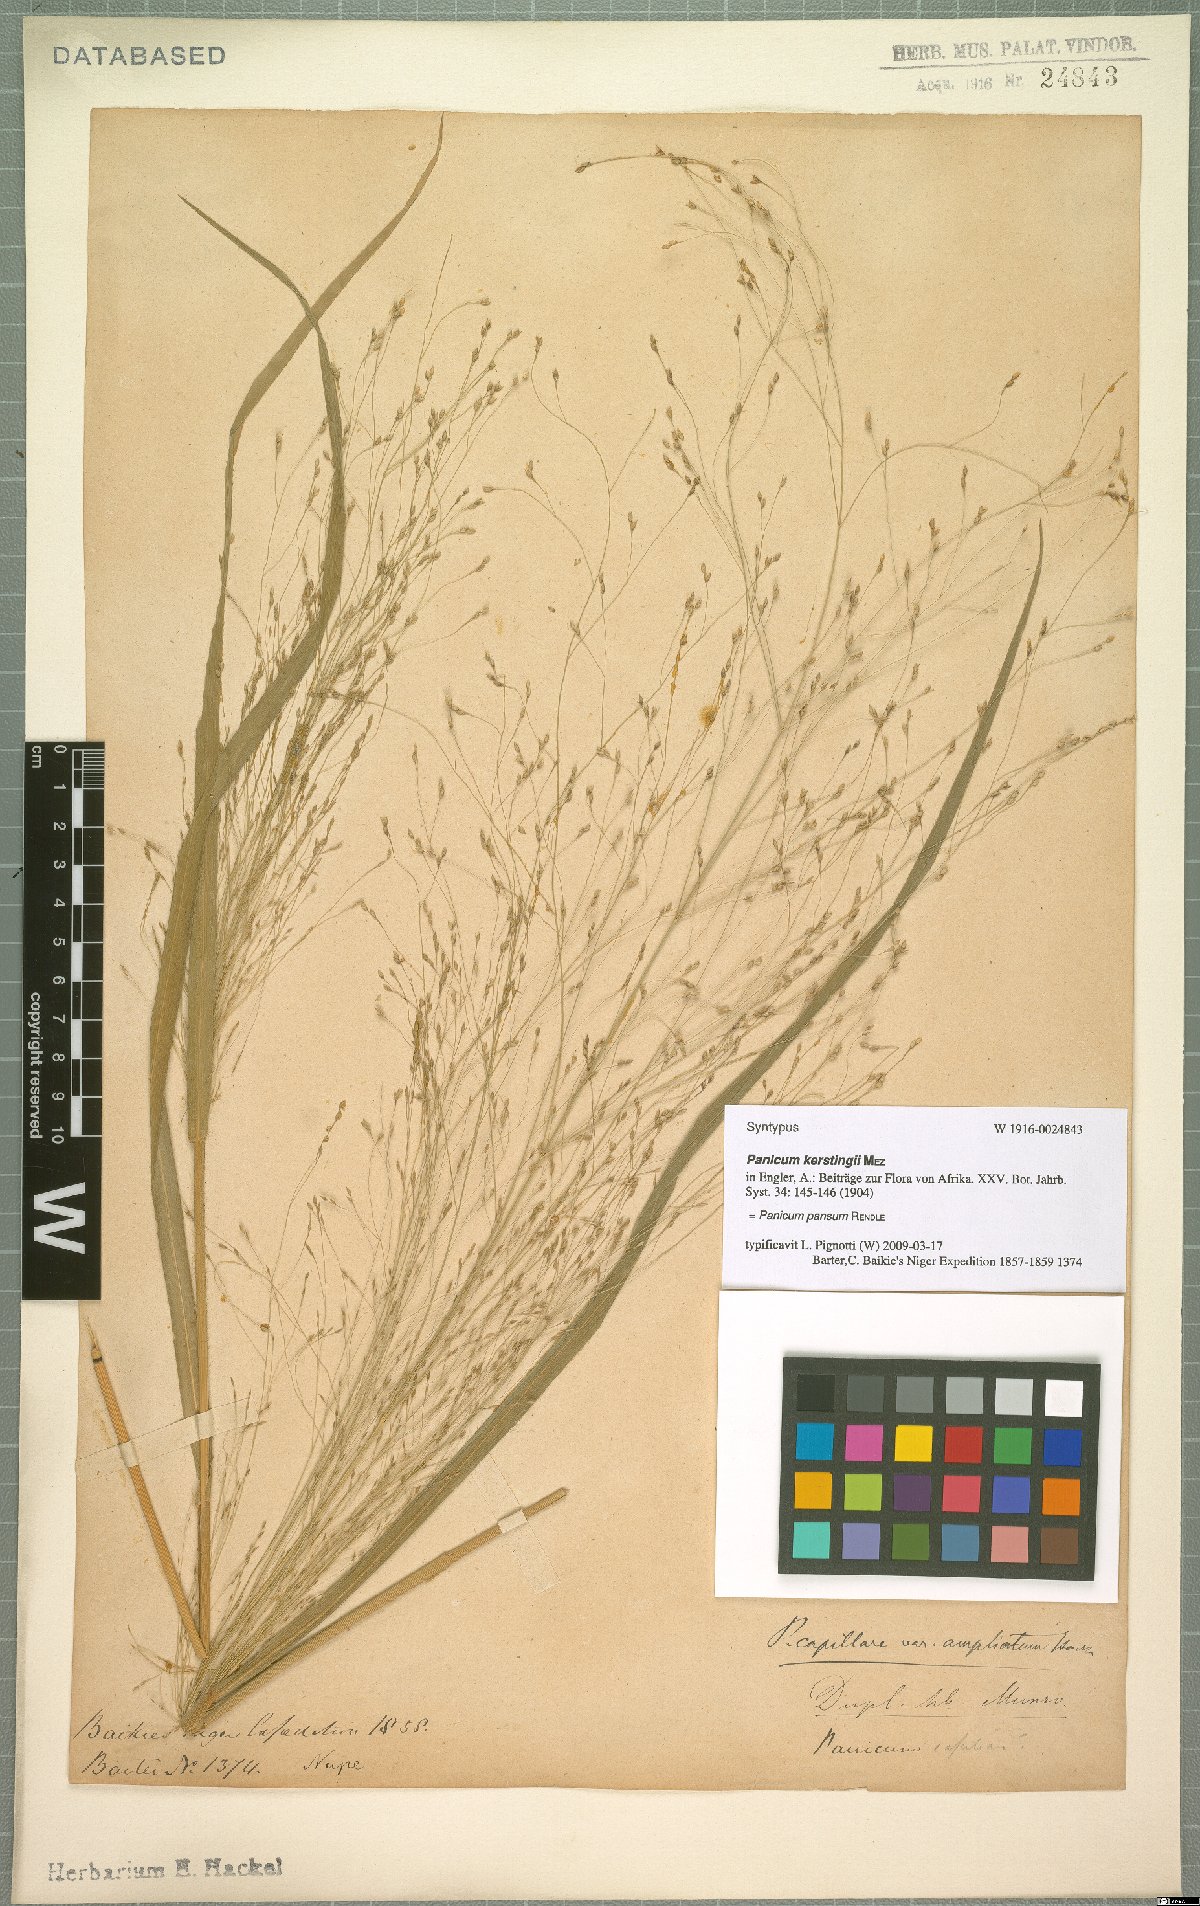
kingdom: Plantae
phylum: Tracheophyta
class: Liliopsida
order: Poales
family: Poaceae
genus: Panicum
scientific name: Panicum pansum
